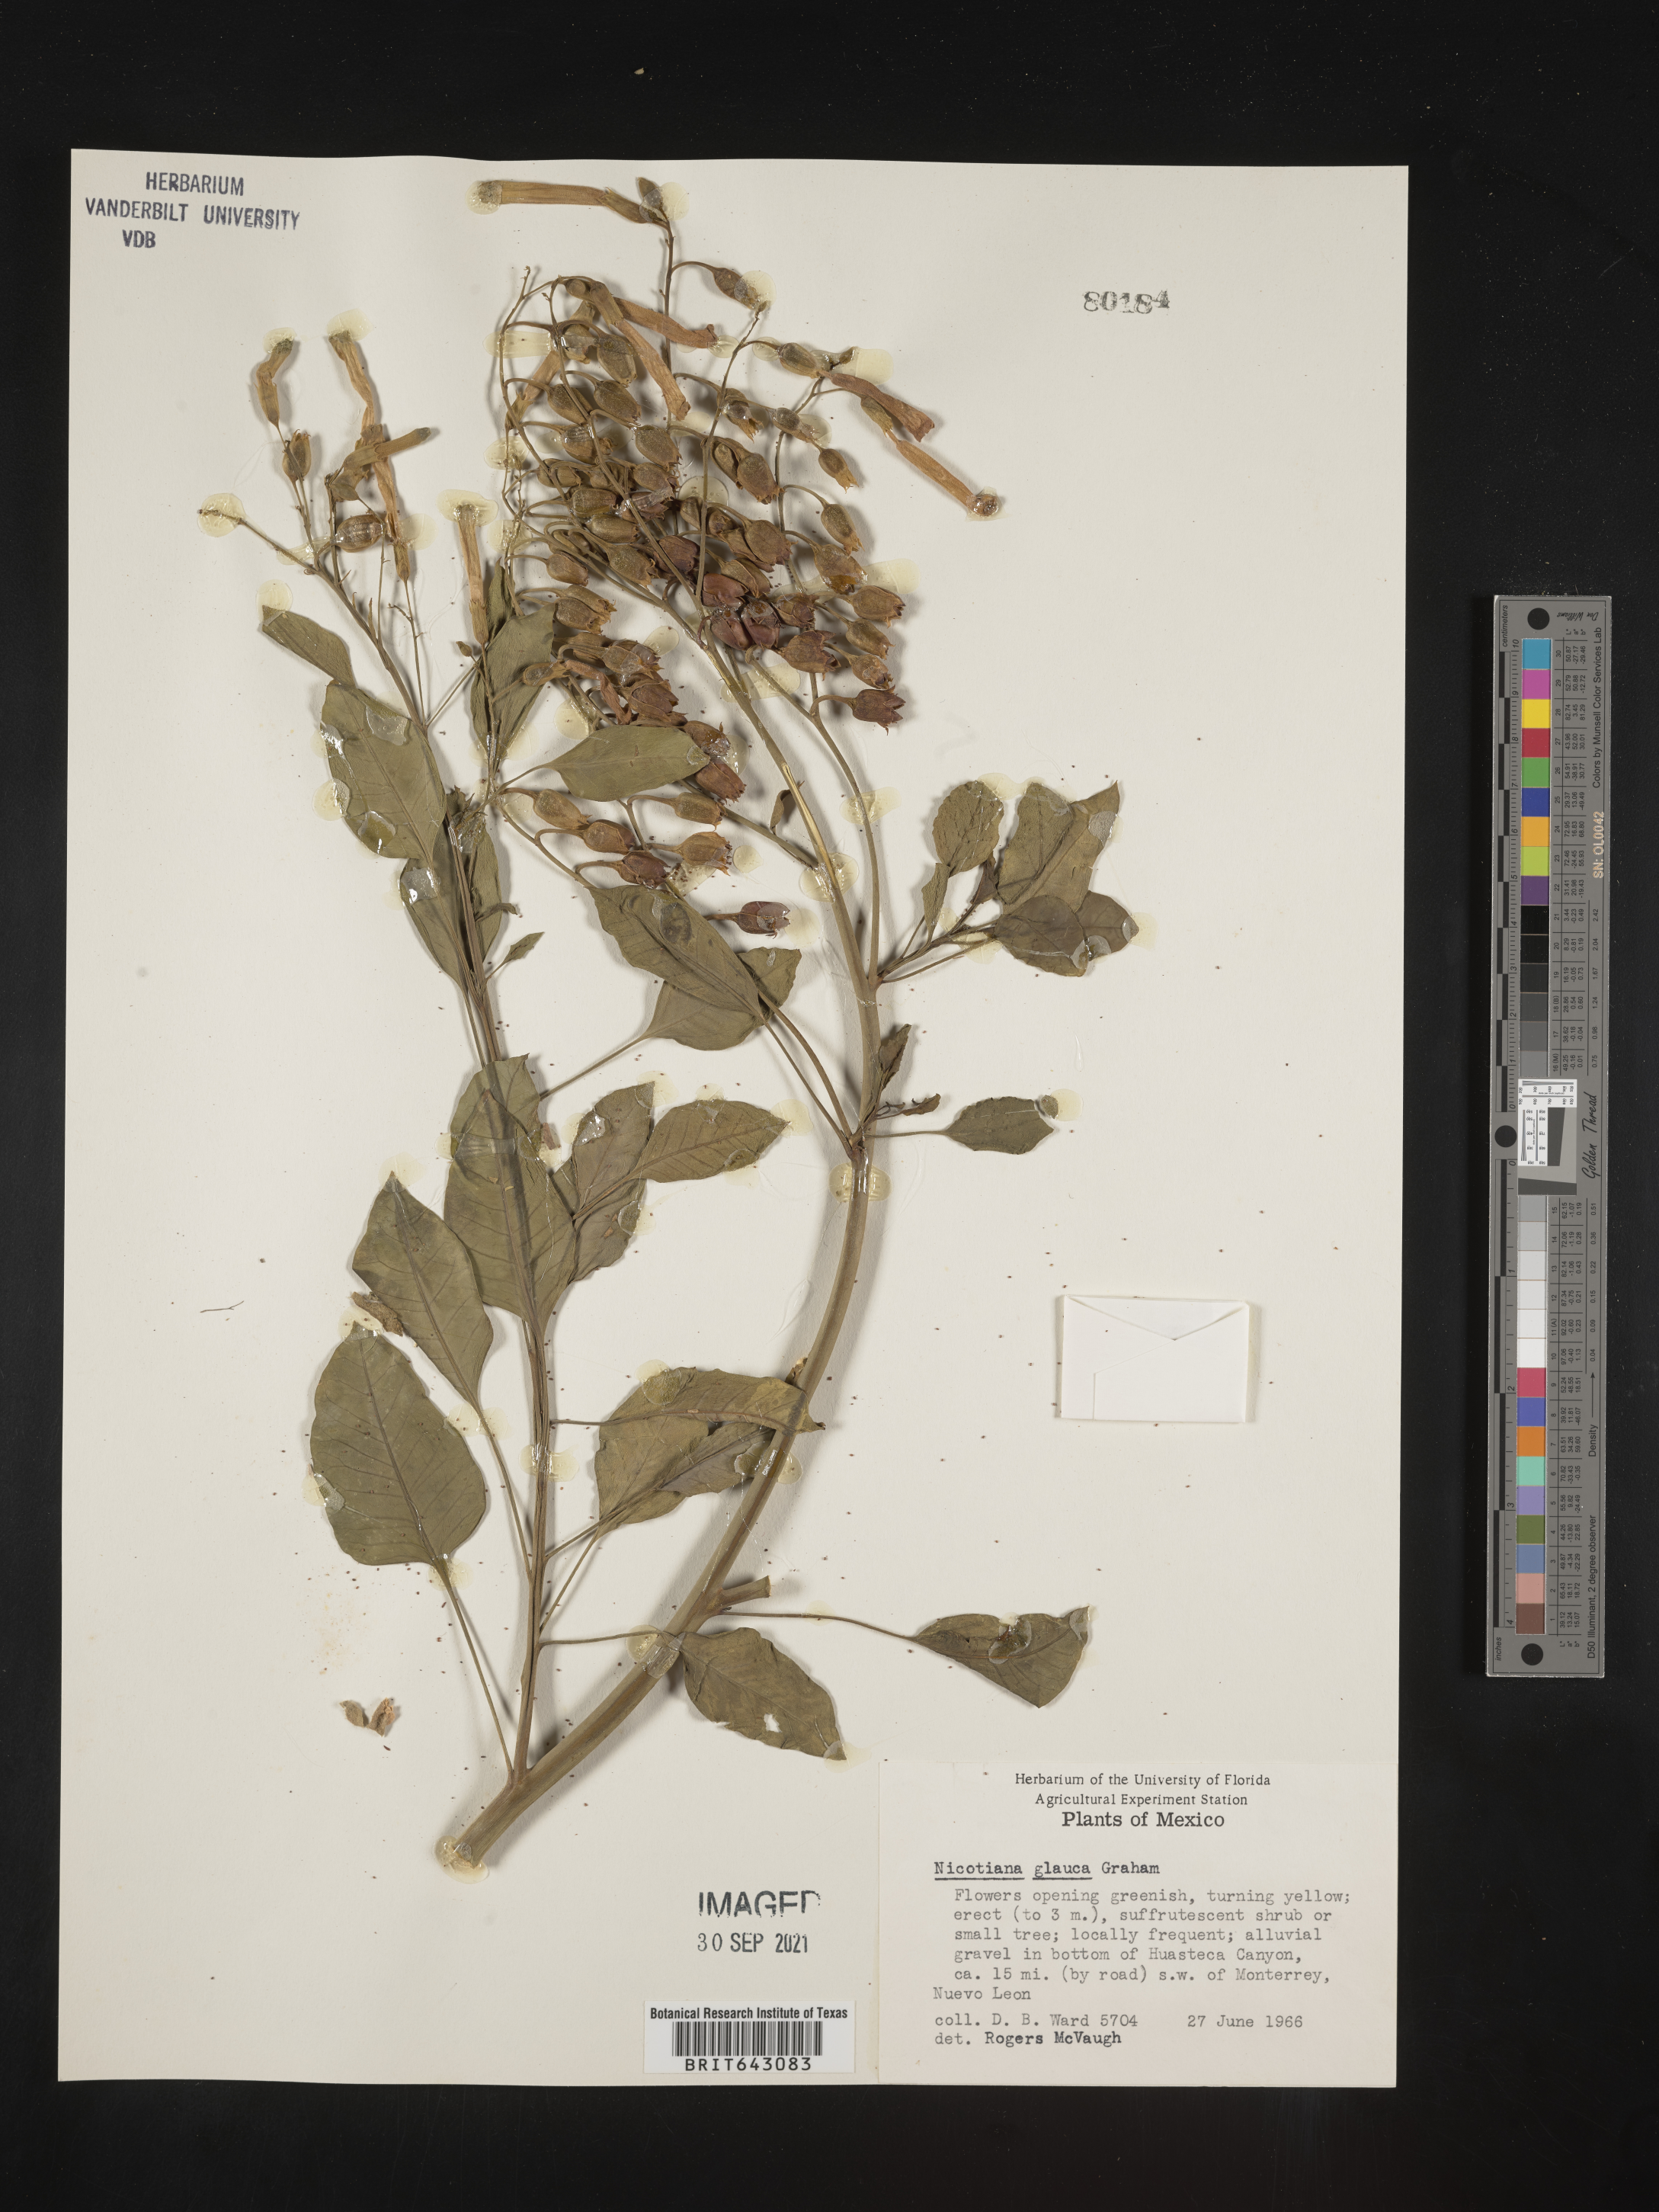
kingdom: Plantae
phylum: Tracheophyta
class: Magnoliopsida
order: Solanales
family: Solanaceae
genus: Nicotiana
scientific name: Nicotiana
